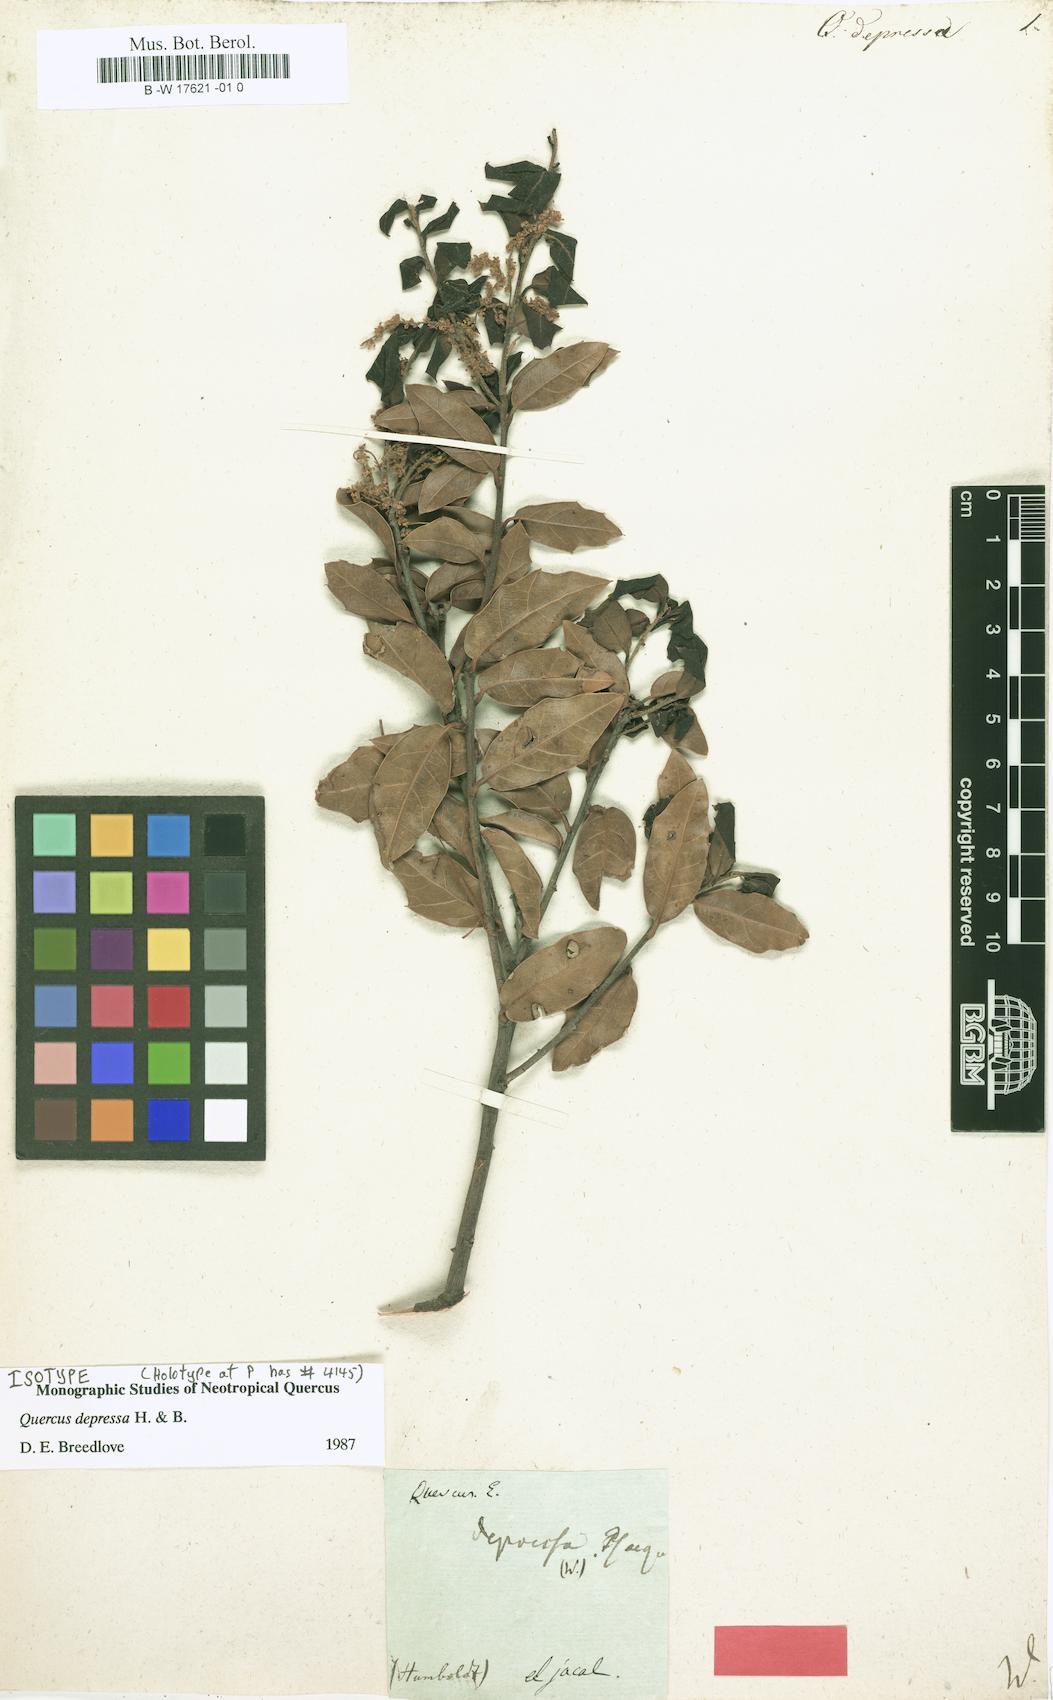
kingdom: Plantae
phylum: Tracheophyta
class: Magnoliopsida
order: Fagales
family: Fagaceae
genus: Quercus
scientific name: Quercus depressa
